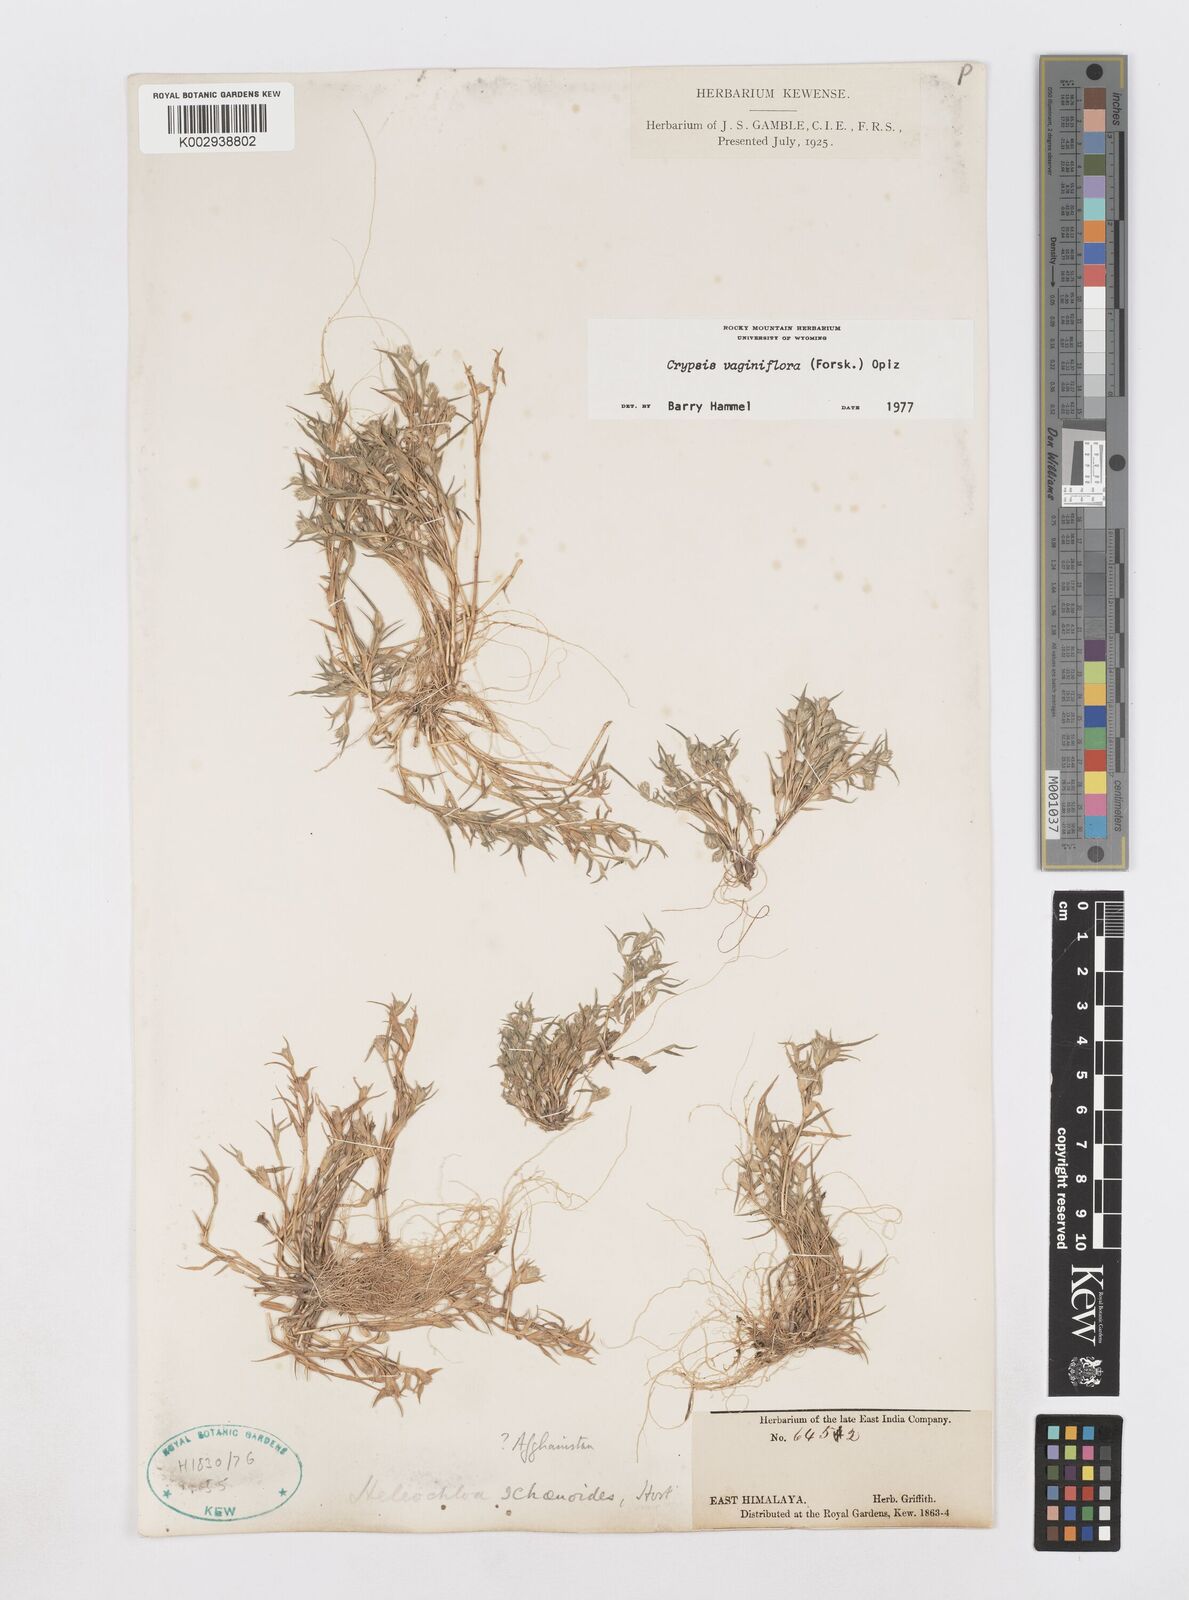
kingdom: Plantae
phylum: Tracheophyta
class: Liliopsida
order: Poales
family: Poaceae
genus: Sporobolus
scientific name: Sporobolus niliacus
